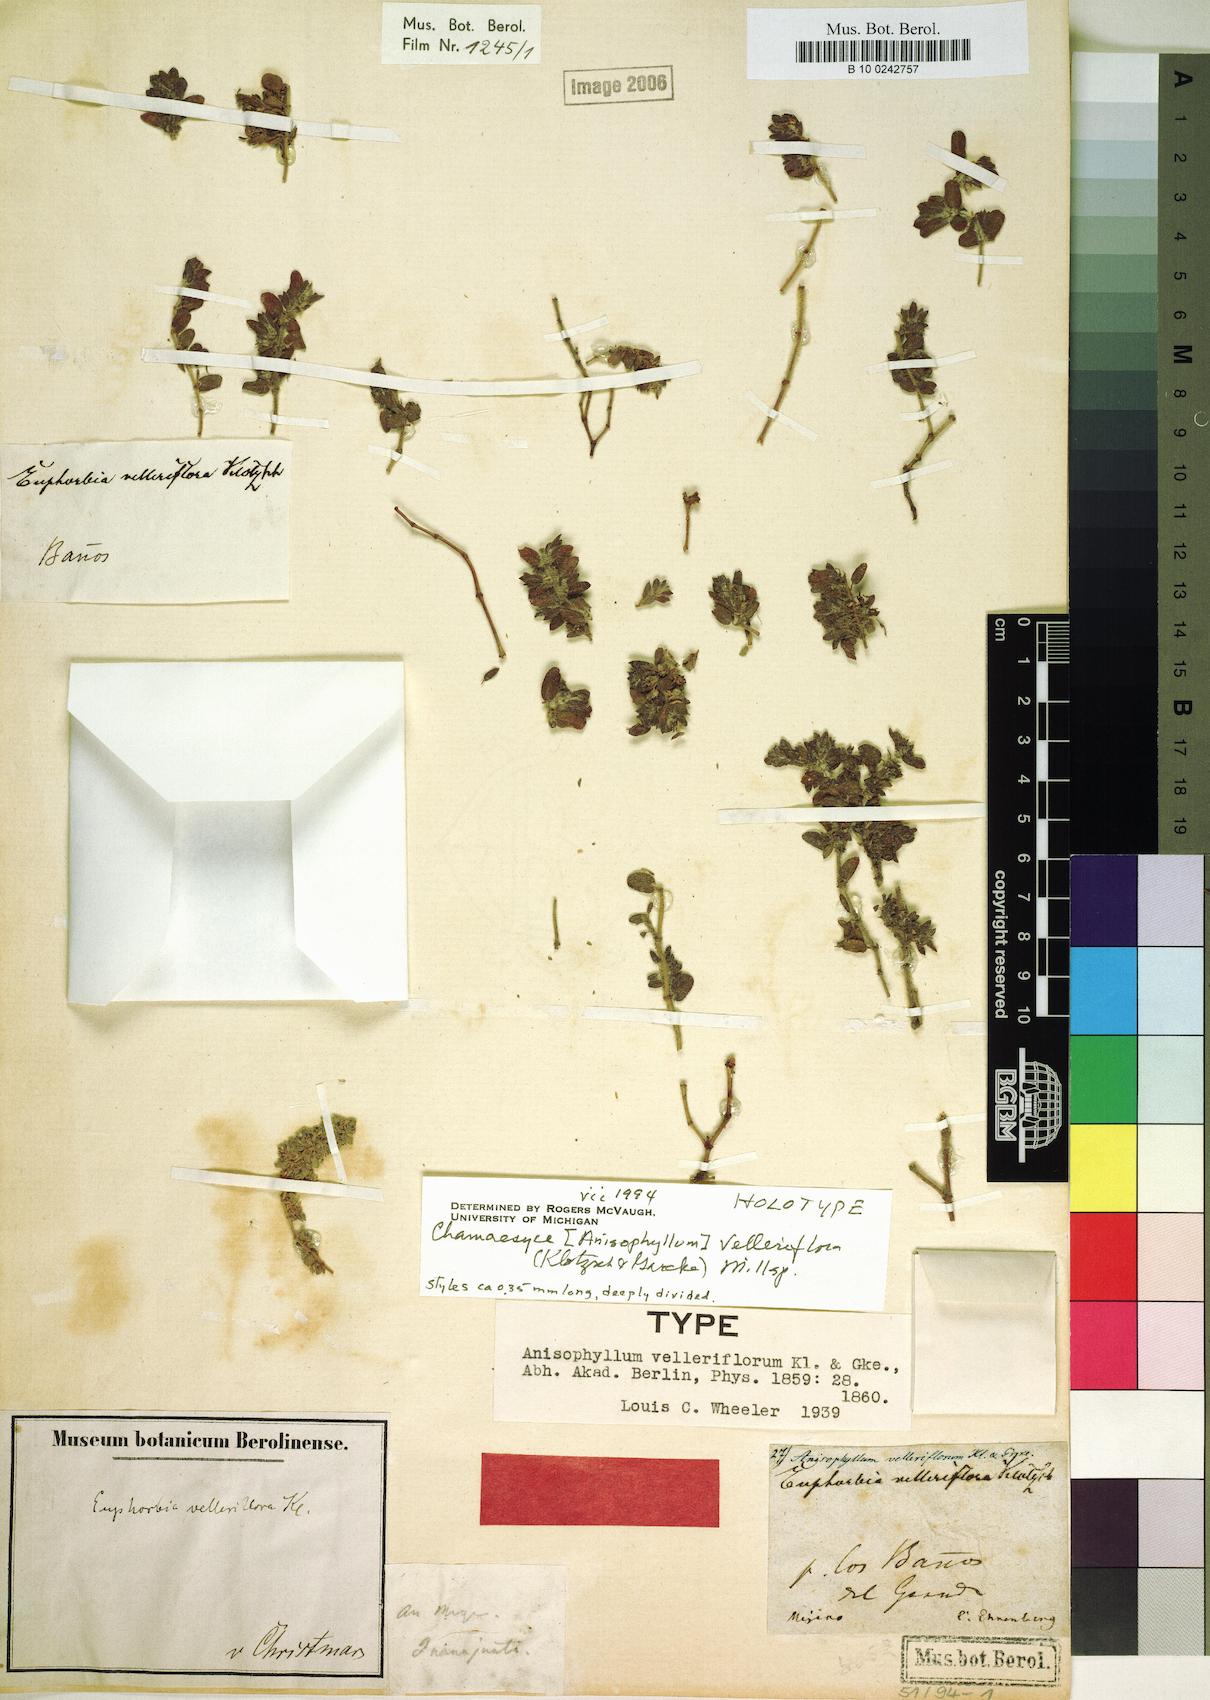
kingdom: Plantae
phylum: Tracheophyta
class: Magnoliopsida
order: Malpighiales
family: Euphorbiaceae
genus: Euphorbia
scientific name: Euphorbia velleriflora
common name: Caliche sandmat
